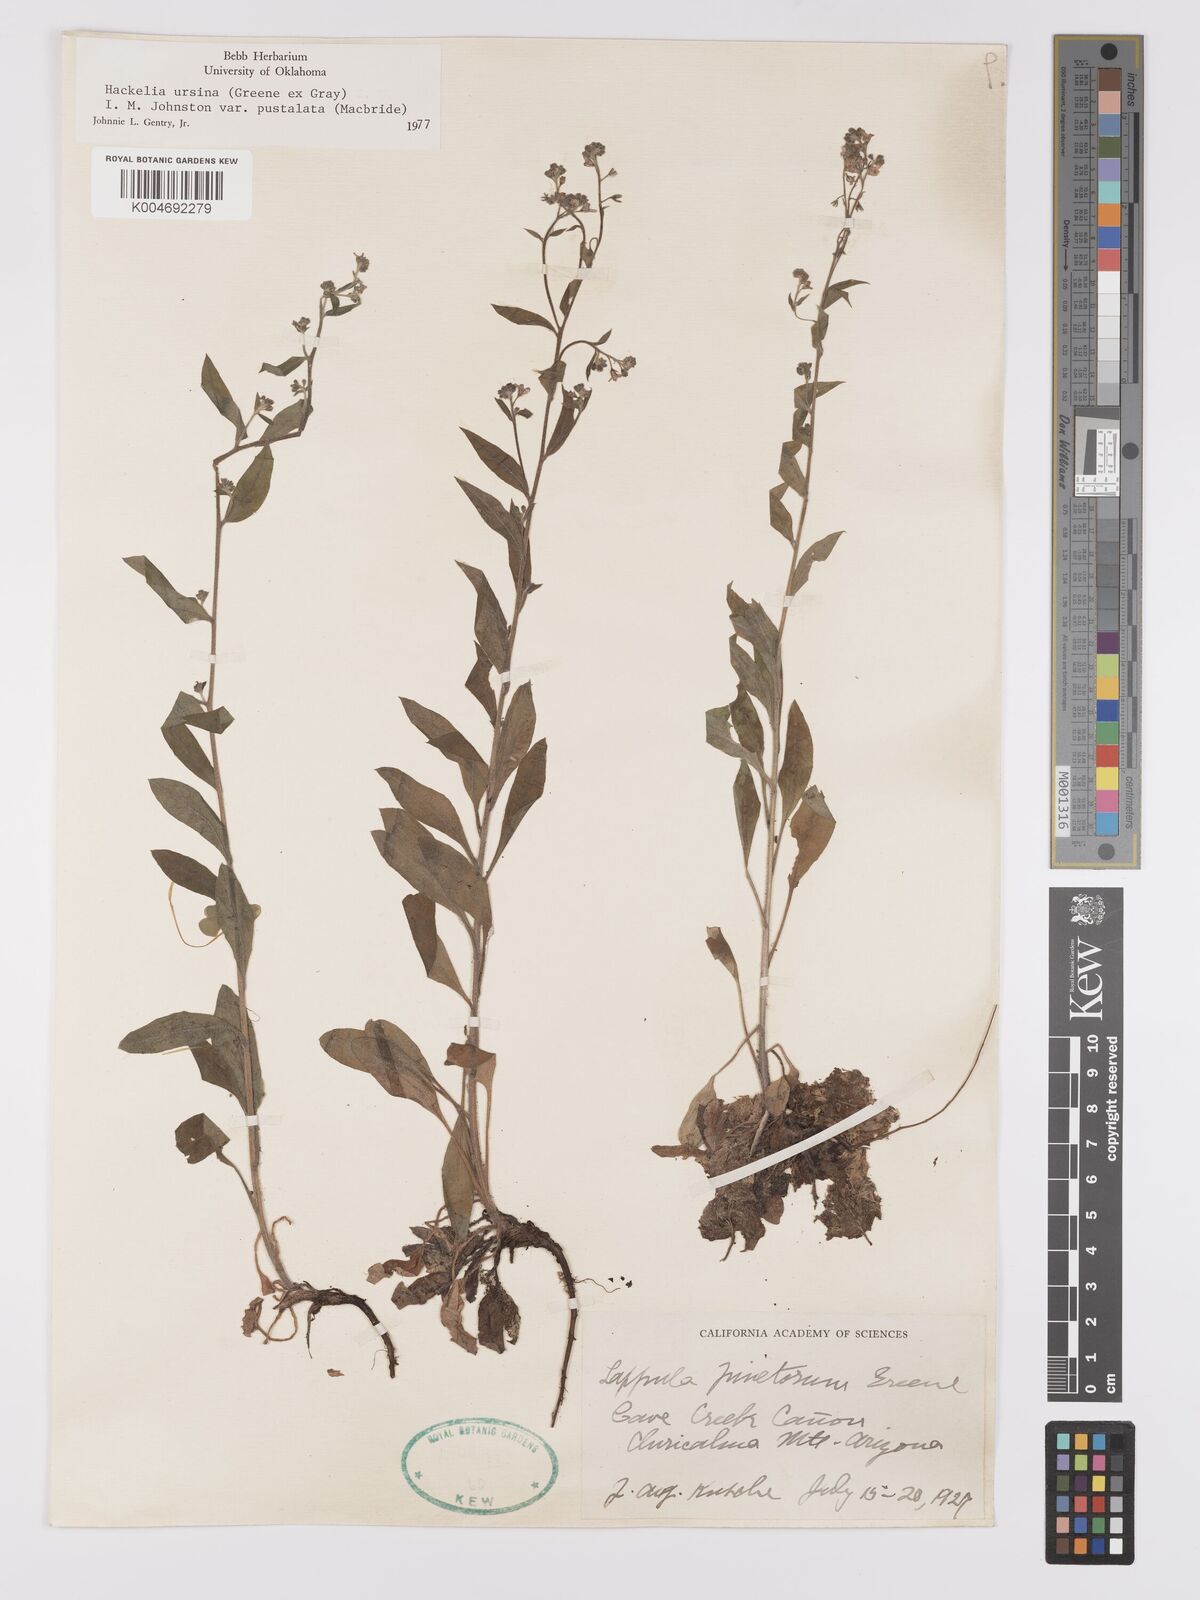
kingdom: Plantae
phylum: Tracheophyta
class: Magnoliopsida
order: Boraginales
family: Boraginaceae
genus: Hackelia
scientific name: Hackelia ursina
